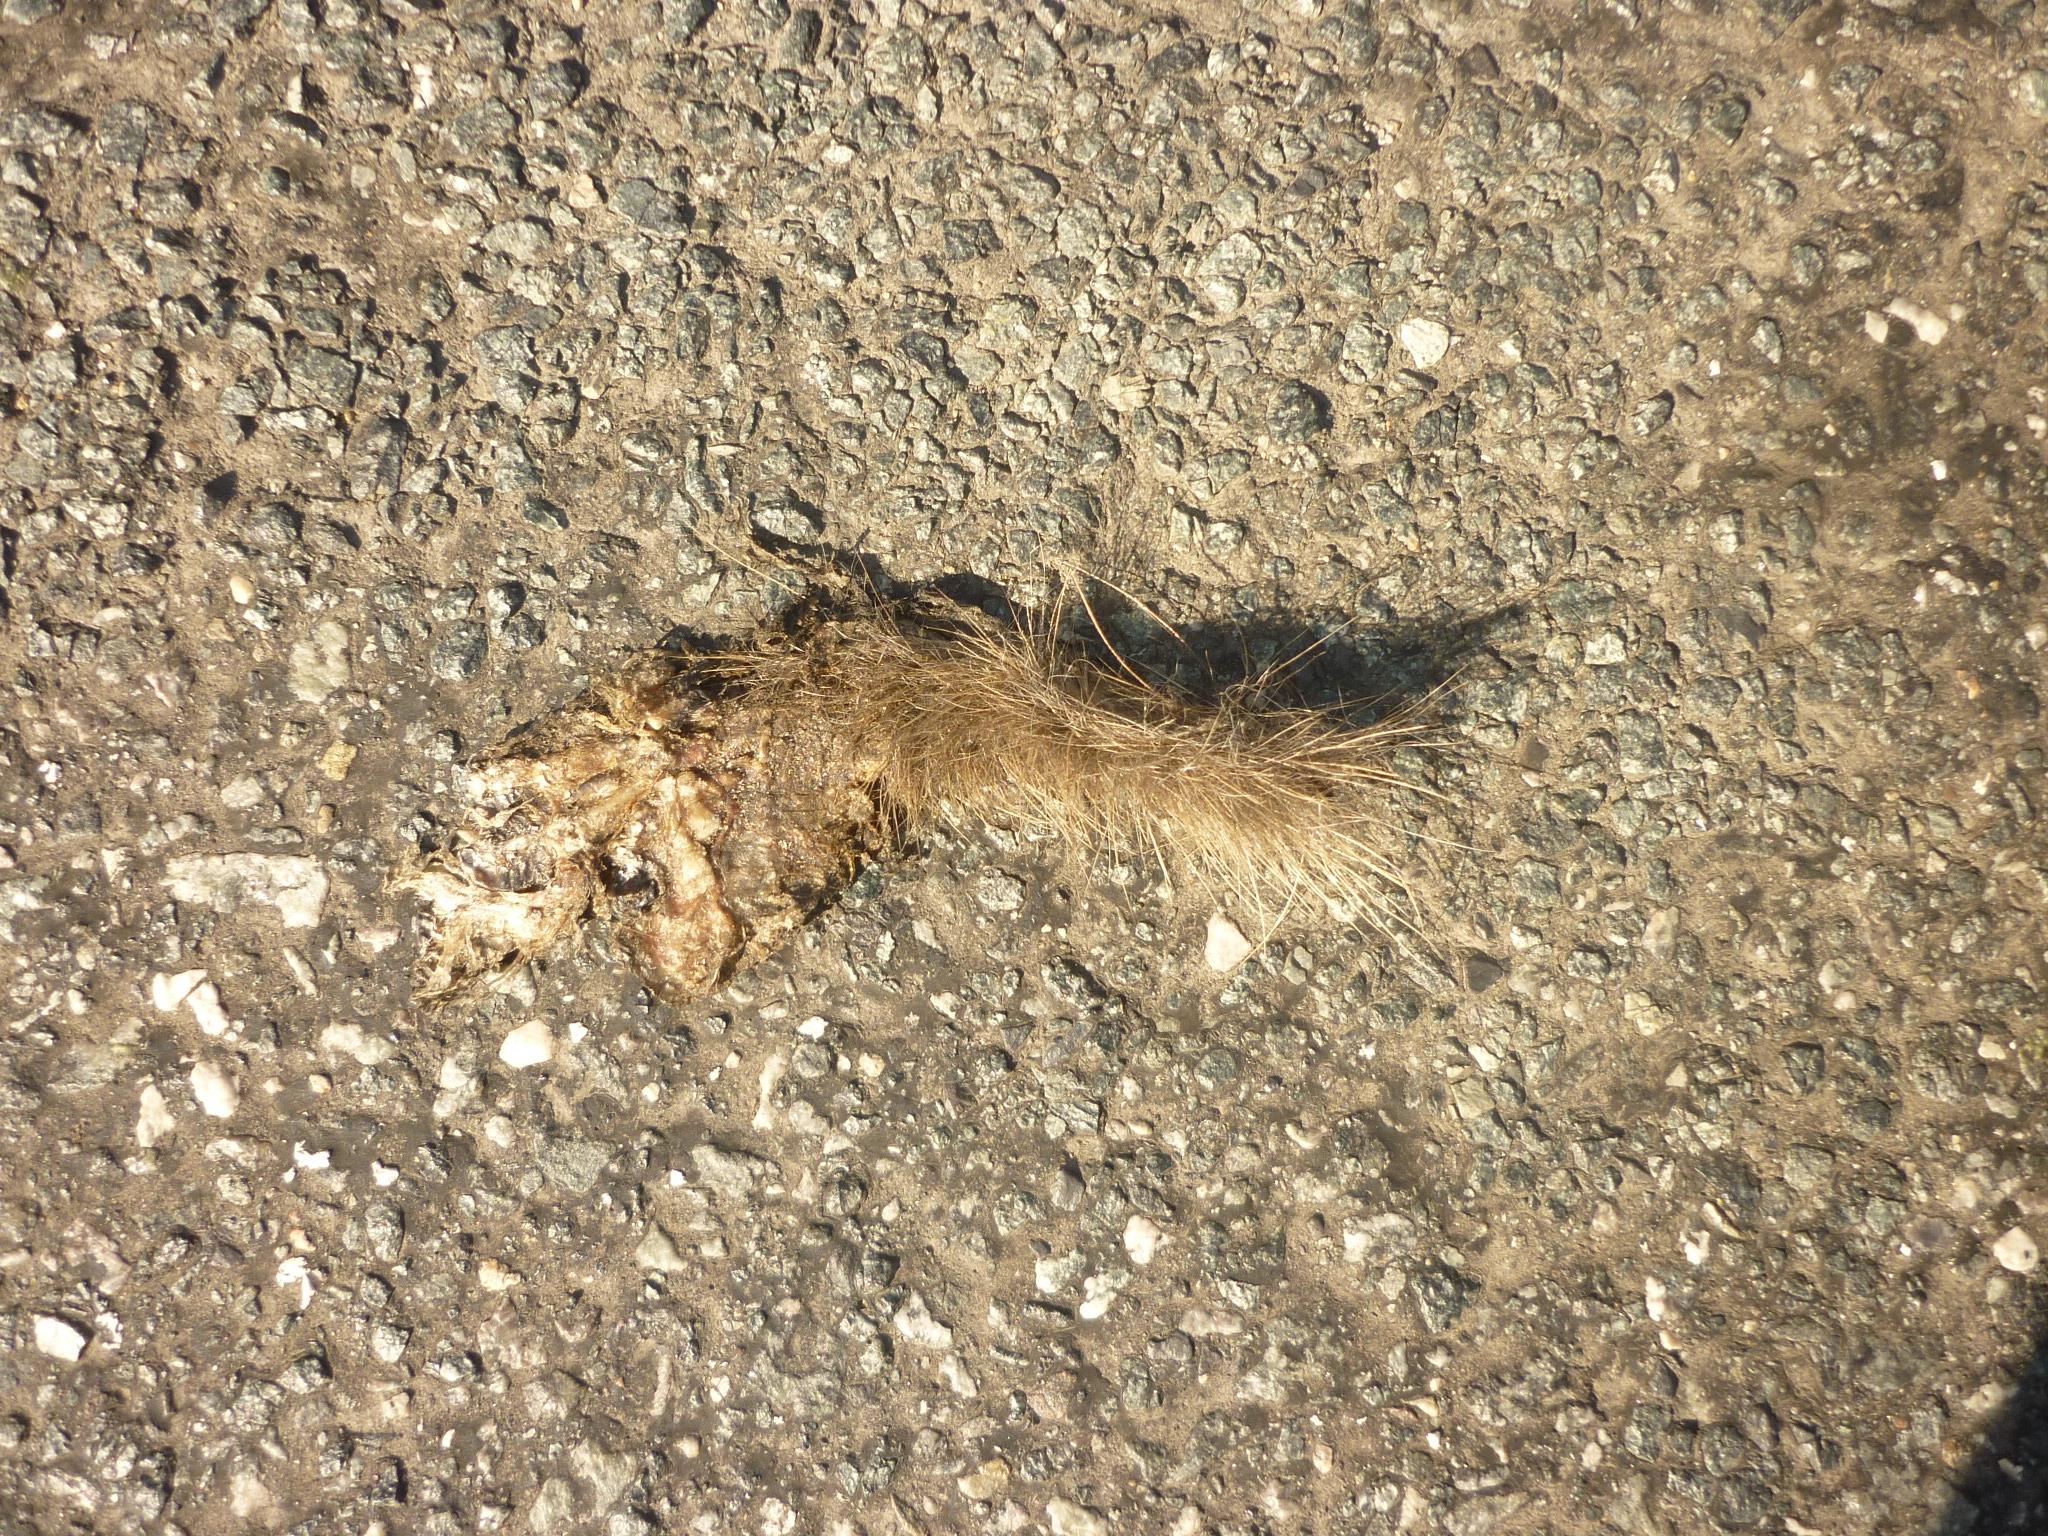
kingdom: Animalia
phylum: Chordata
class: Mammalia
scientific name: Mammalia
